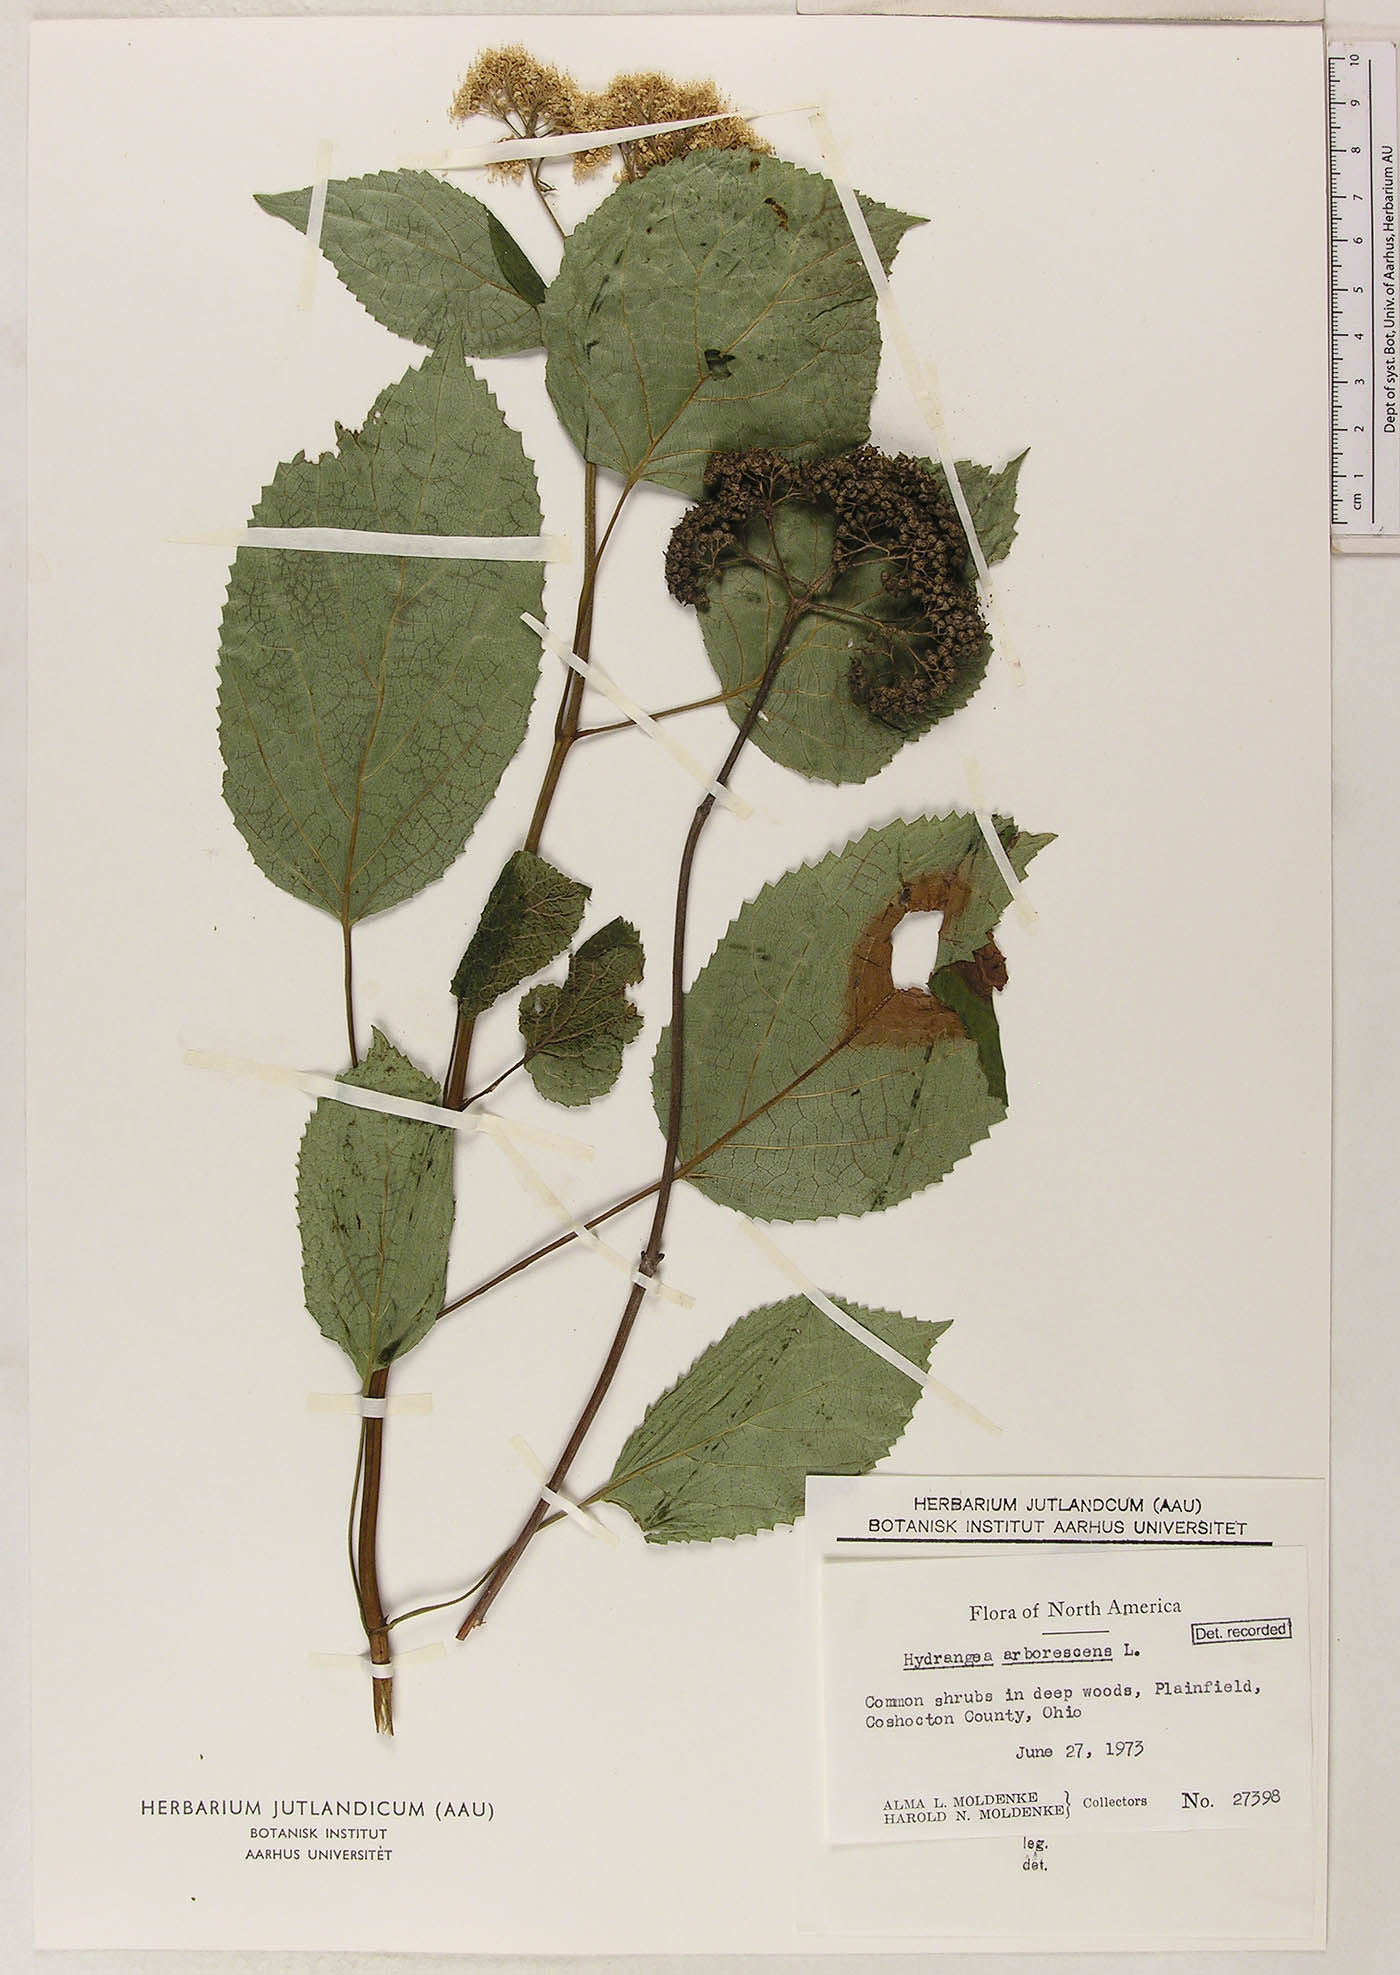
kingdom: Plantae
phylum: Tracheophyta
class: Magnoliopsida
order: Cornales
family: Hydrangeaceae
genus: Hydrangea
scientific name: Hydrangea arborescens
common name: Sevenbark
